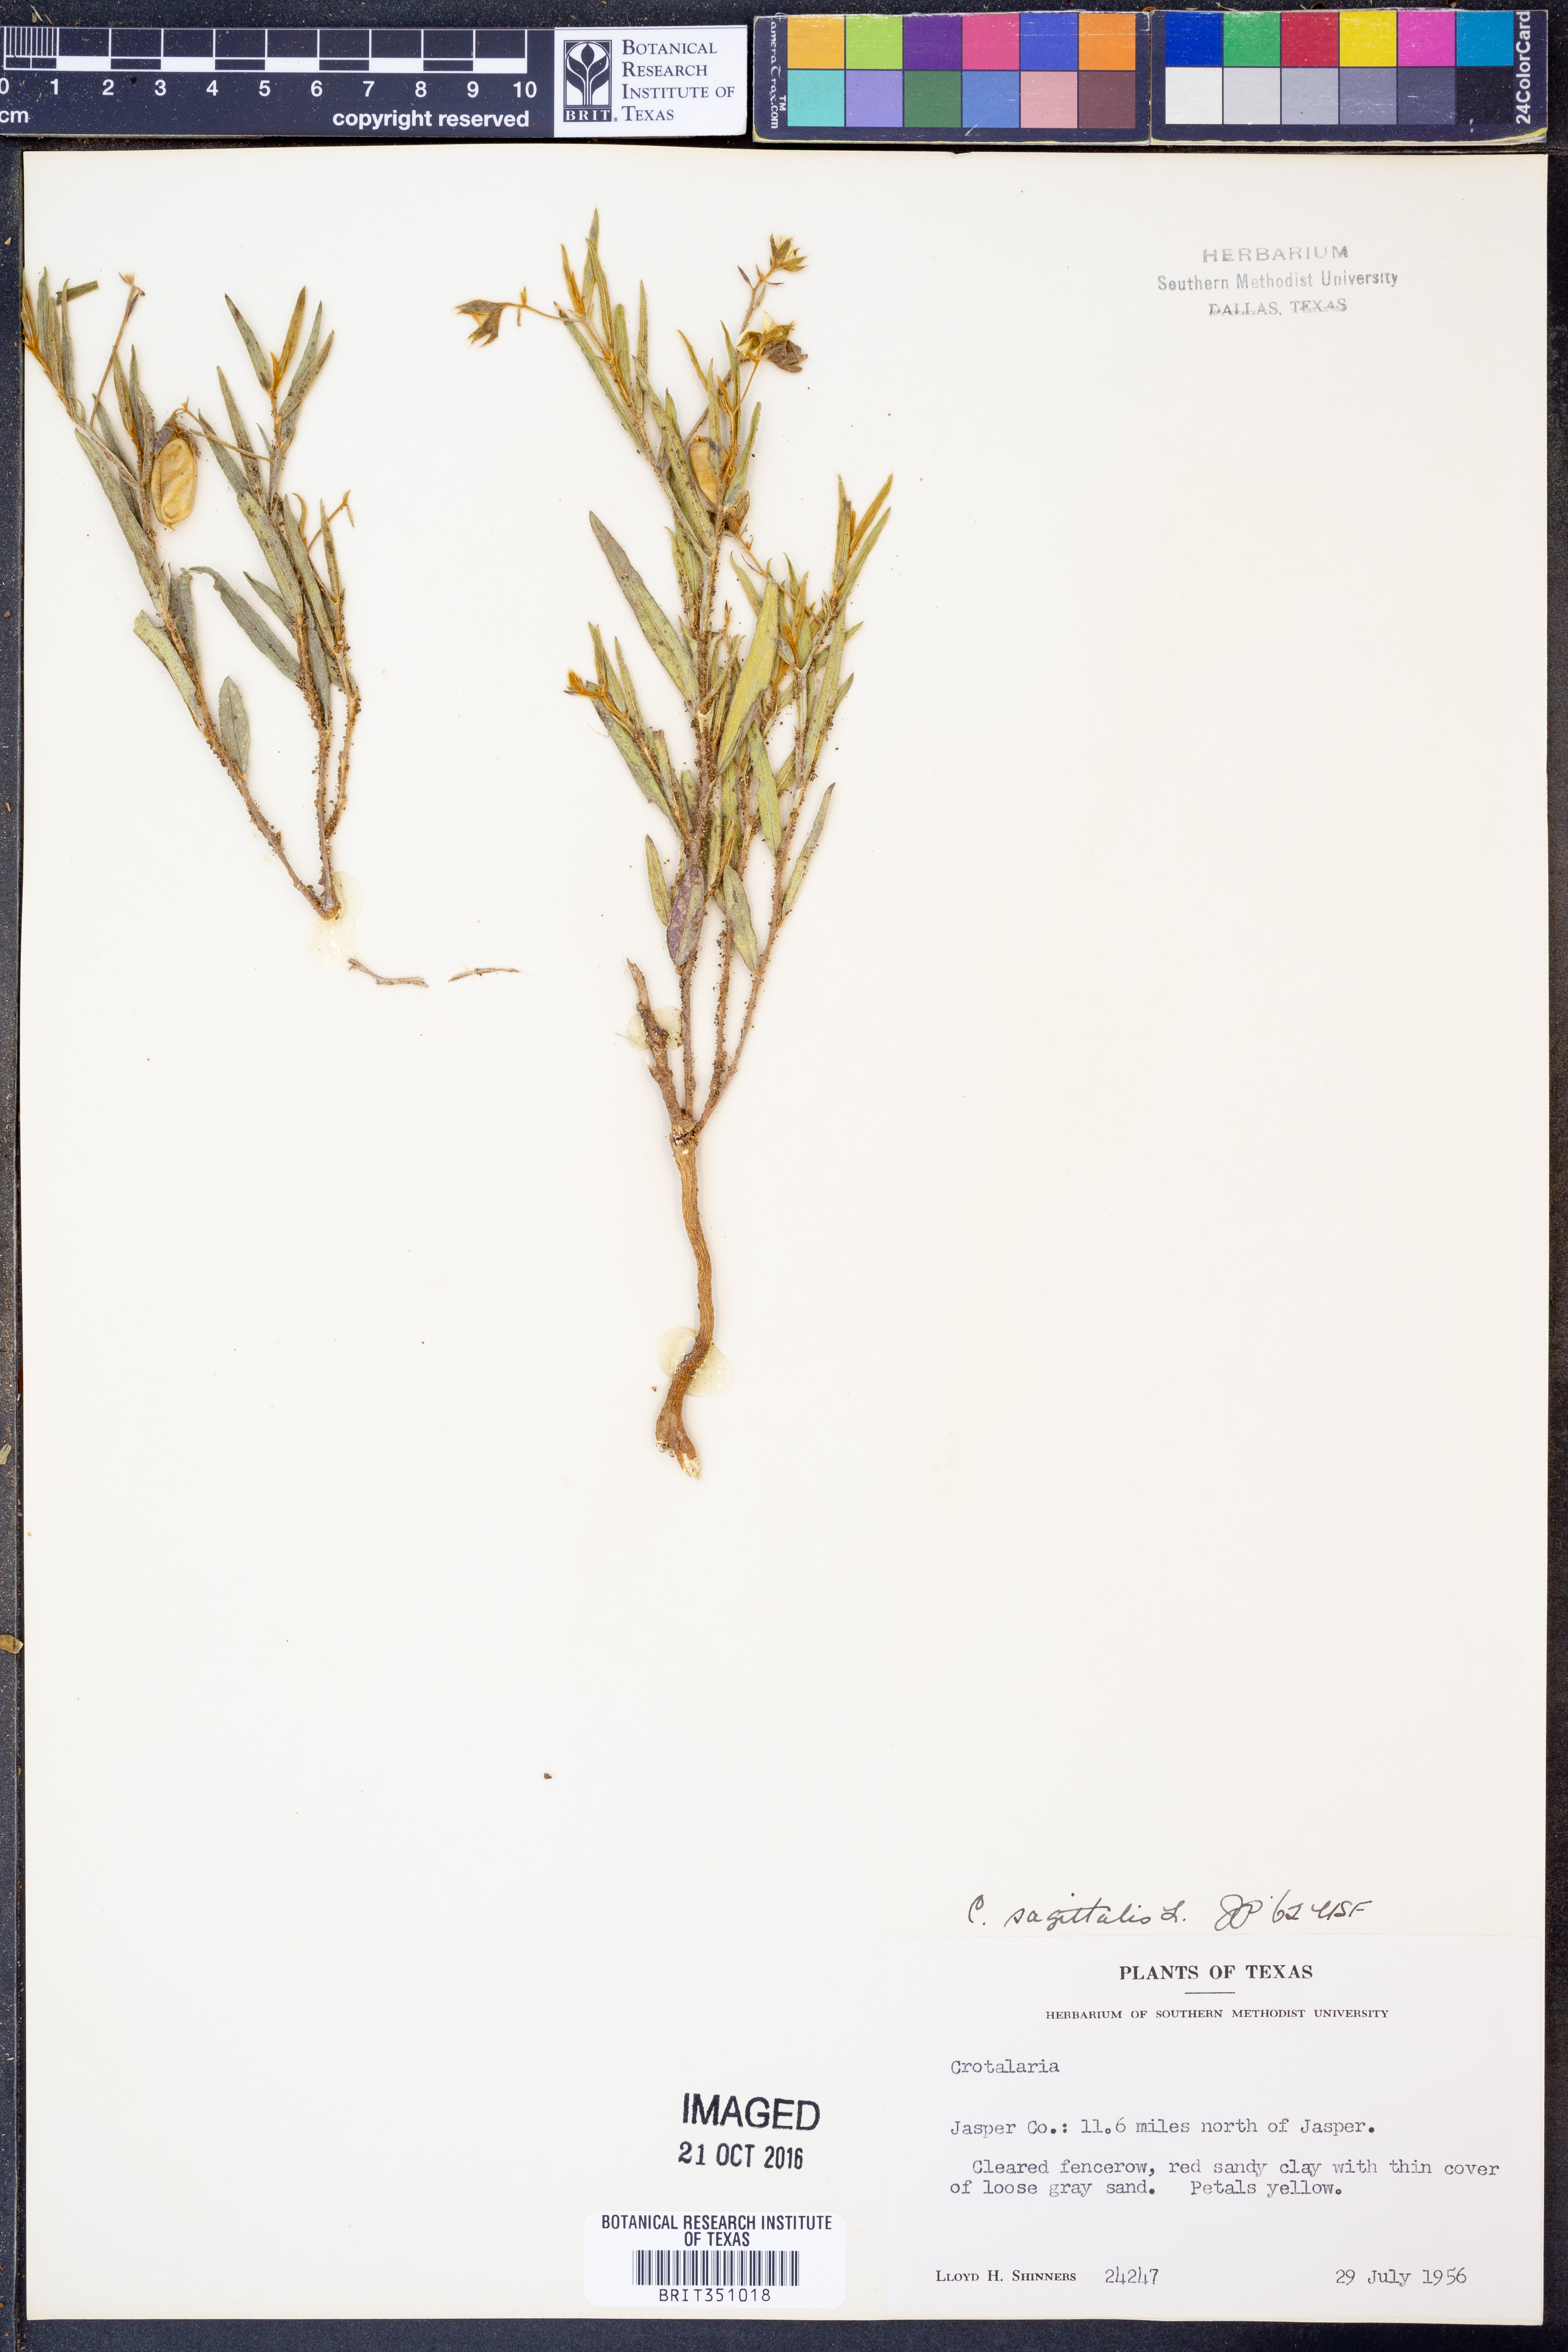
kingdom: Plantae
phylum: Tracheophyta
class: Magnoliopsida
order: Fabales
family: Fabaceae
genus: Crotalaria
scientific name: Crotalaria sagittalis
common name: Arrowhead rattlebox
